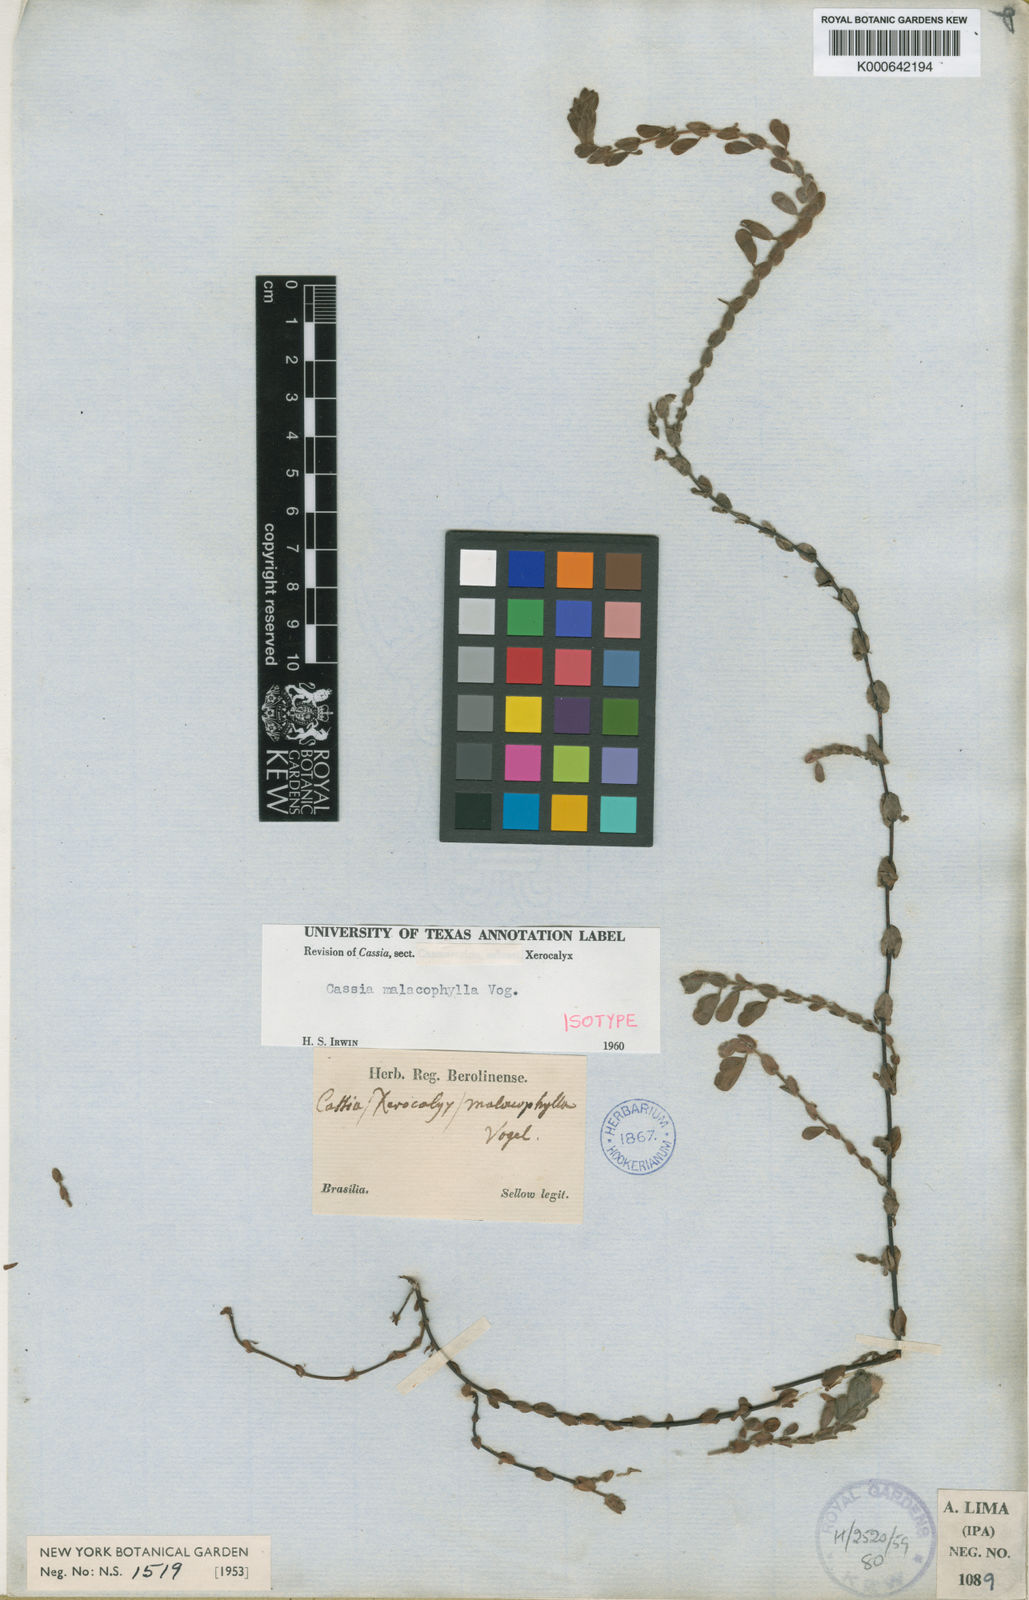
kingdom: Plantae
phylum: Tracheophyta
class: Magnoliopsida
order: Fabales
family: Fabaceae
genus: Chamaecrista
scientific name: Chamaecrista desvauxii
